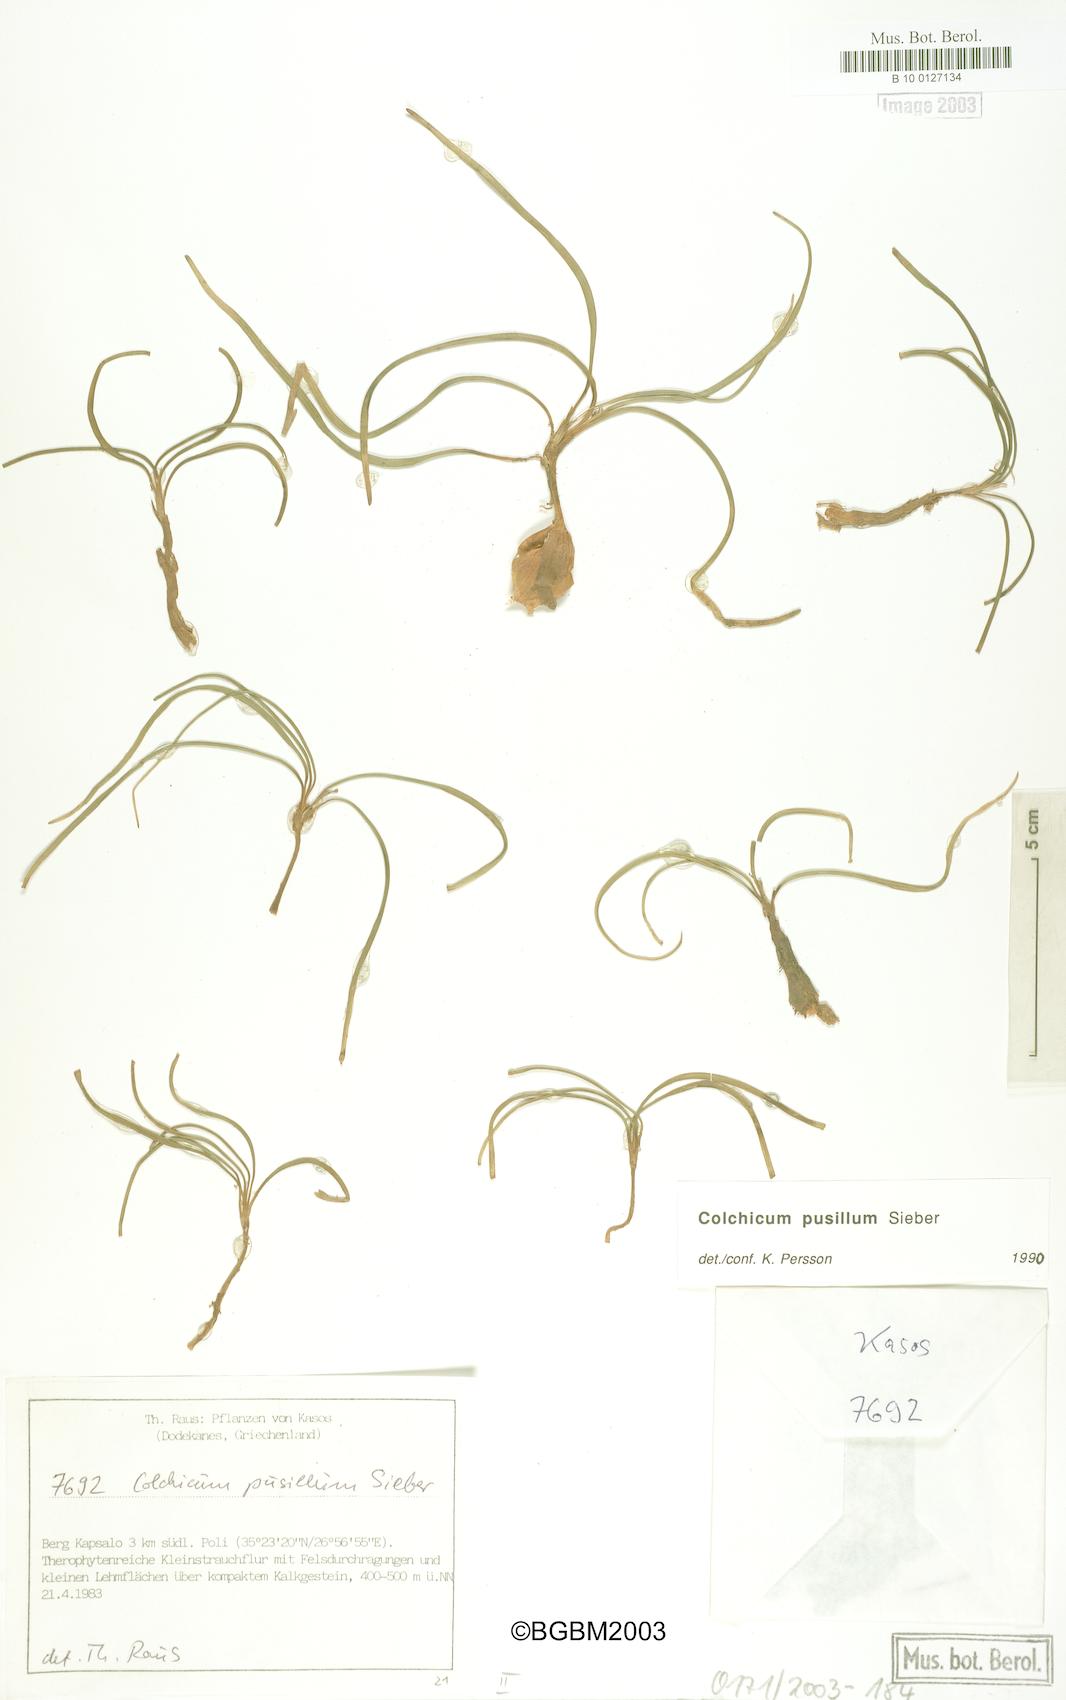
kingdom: Plantae
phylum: Tracheophyta
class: Liliopsida
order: Liliales
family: Colchicaceae
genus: Colchicum
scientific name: Colchicum pusillum
